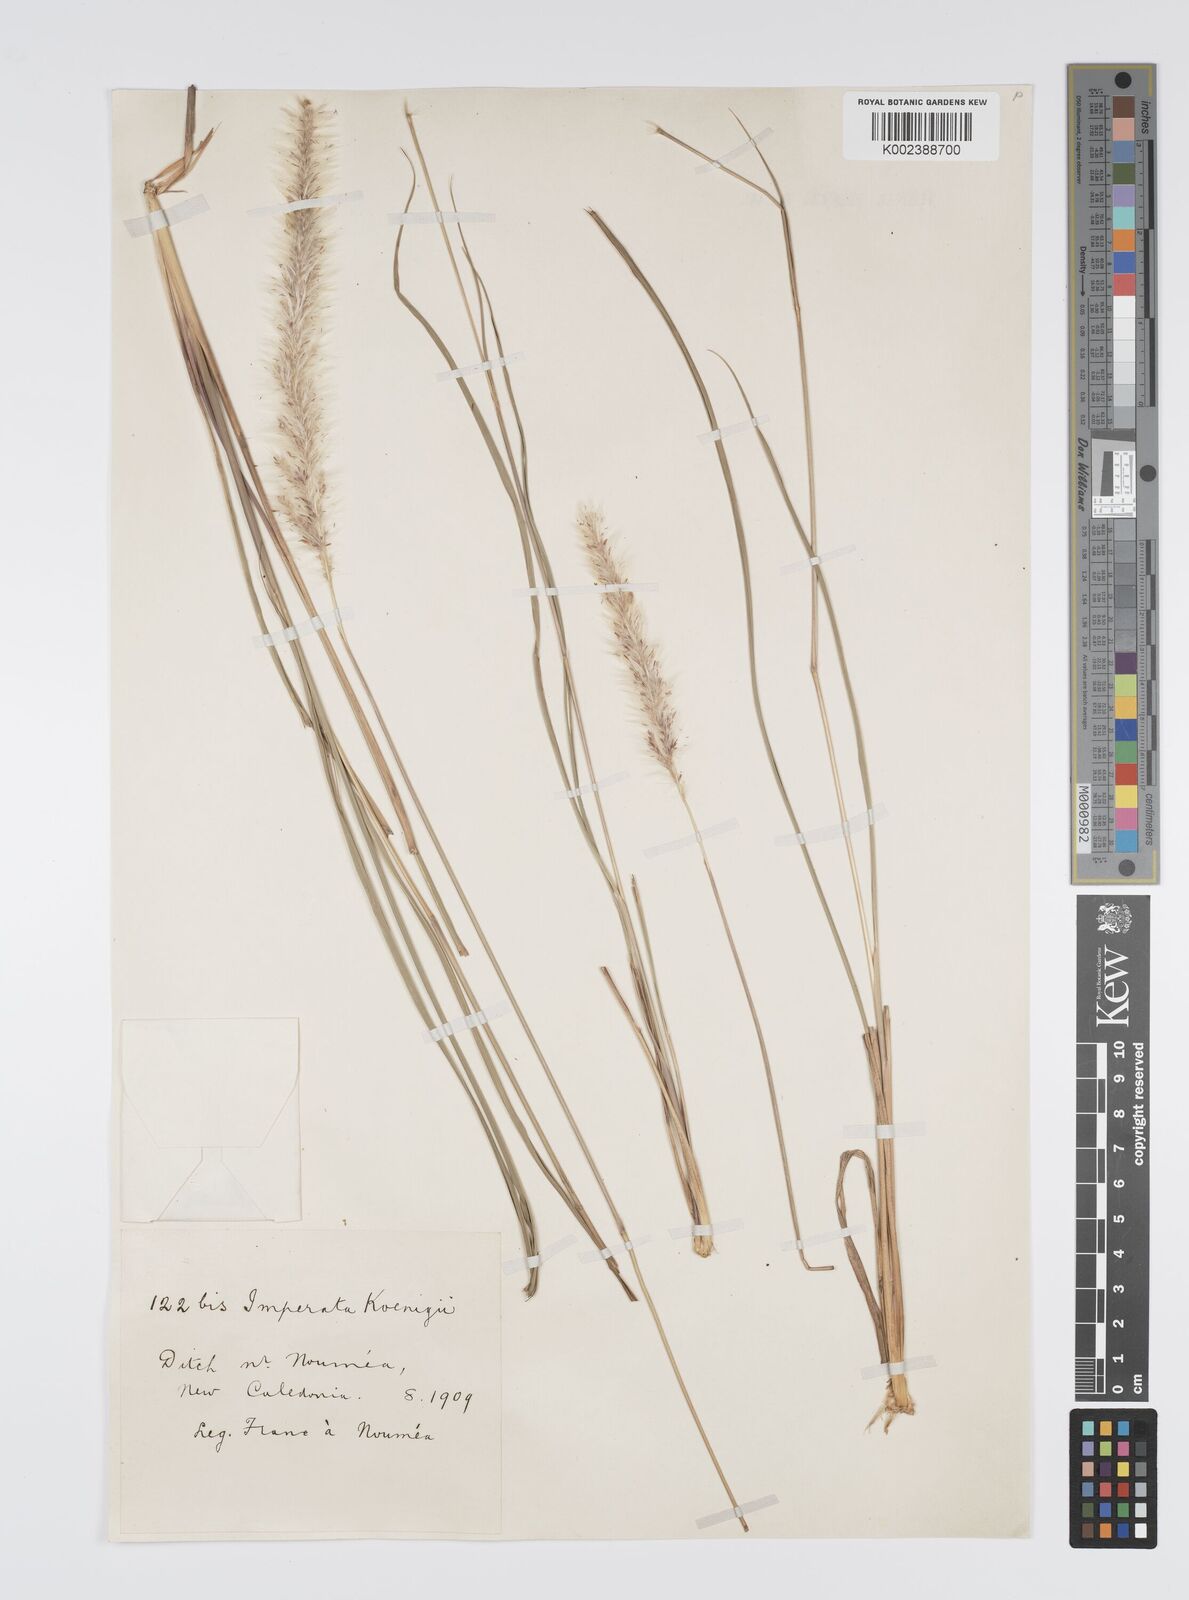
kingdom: Plantae
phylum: Tracheophyta
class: Liliopsida
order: Poales
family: Poaceae
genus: Imperata
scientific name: Imperata cylindrica
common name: Cogongrass
